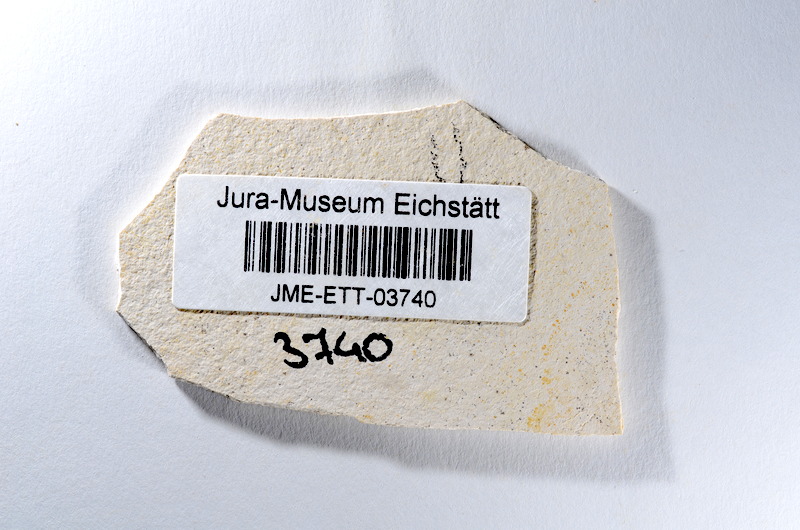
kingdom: Animalia
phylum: Chordata
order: Salmoniformes
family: Orthogonikleithridae
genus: Orthogonikleithrus
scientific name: Orthogonikleithrus hoelli
